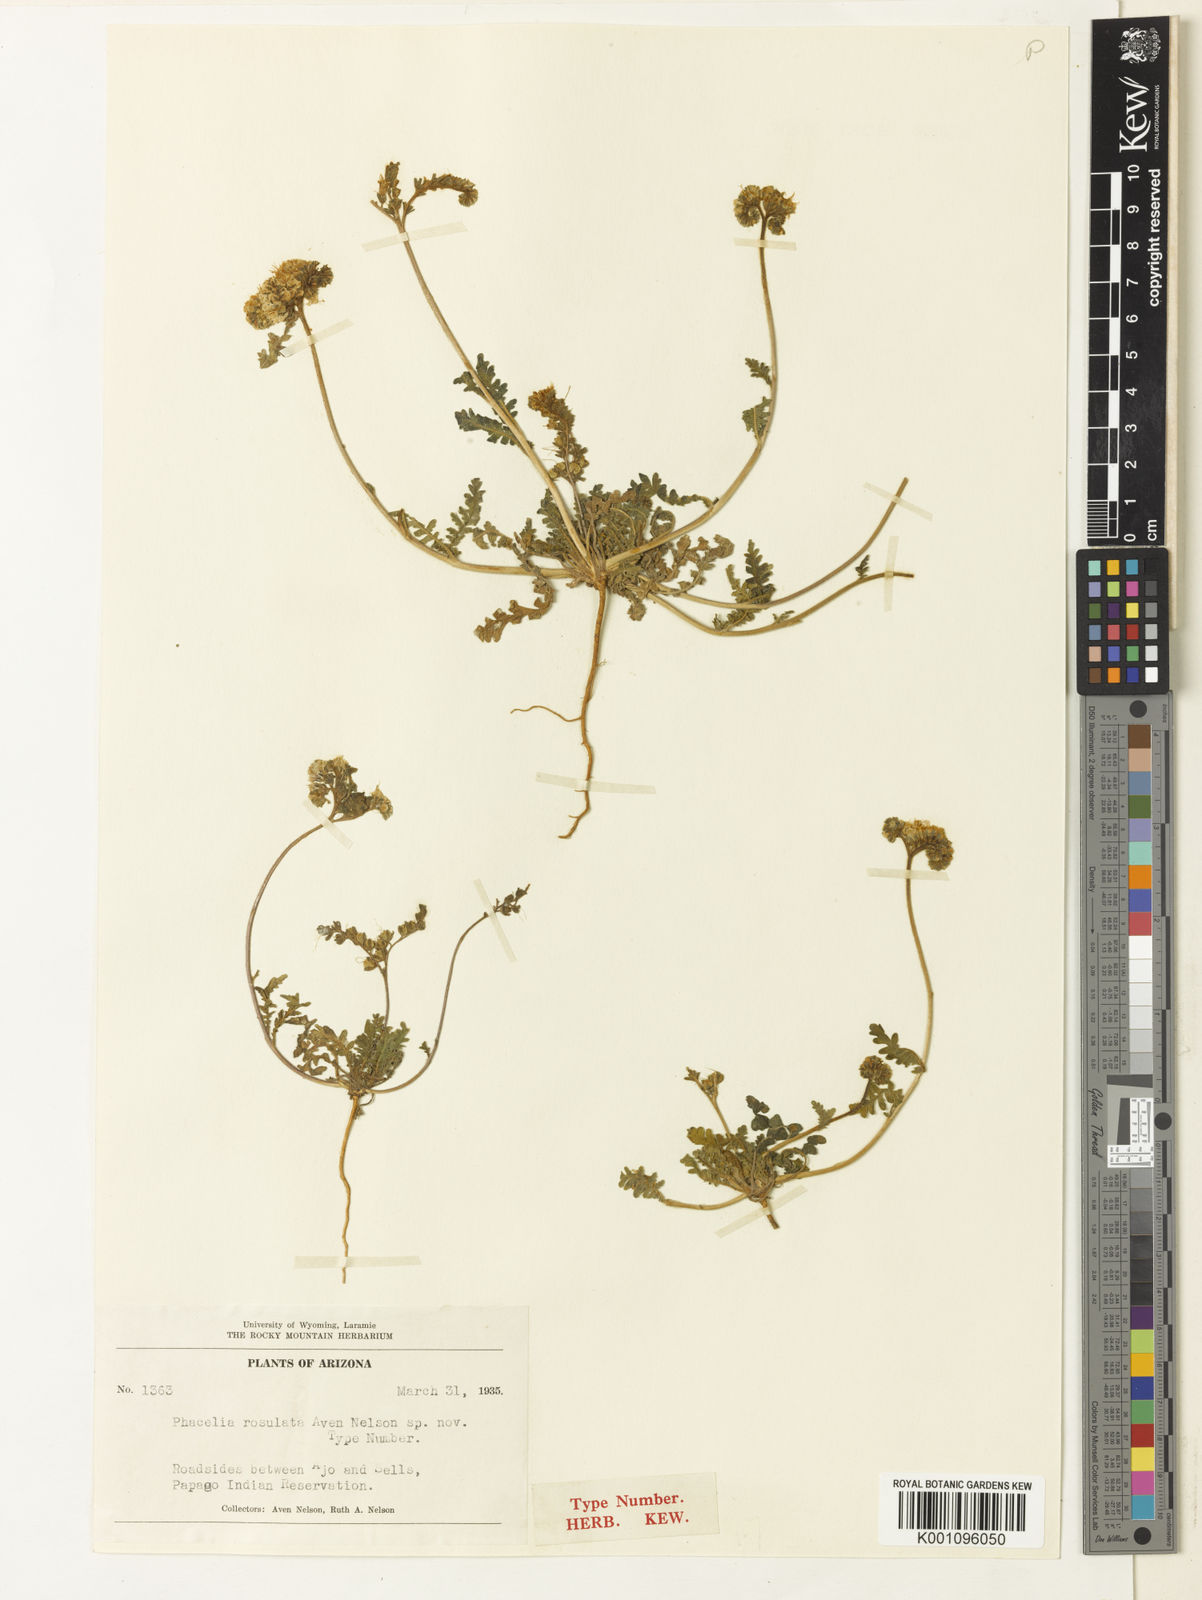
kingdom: Plantae
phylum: Tracheophyta
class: Magnoliopsida
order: Boraginales
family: Hydrophyllaceae
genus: Phacelia
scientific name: Phacelia
